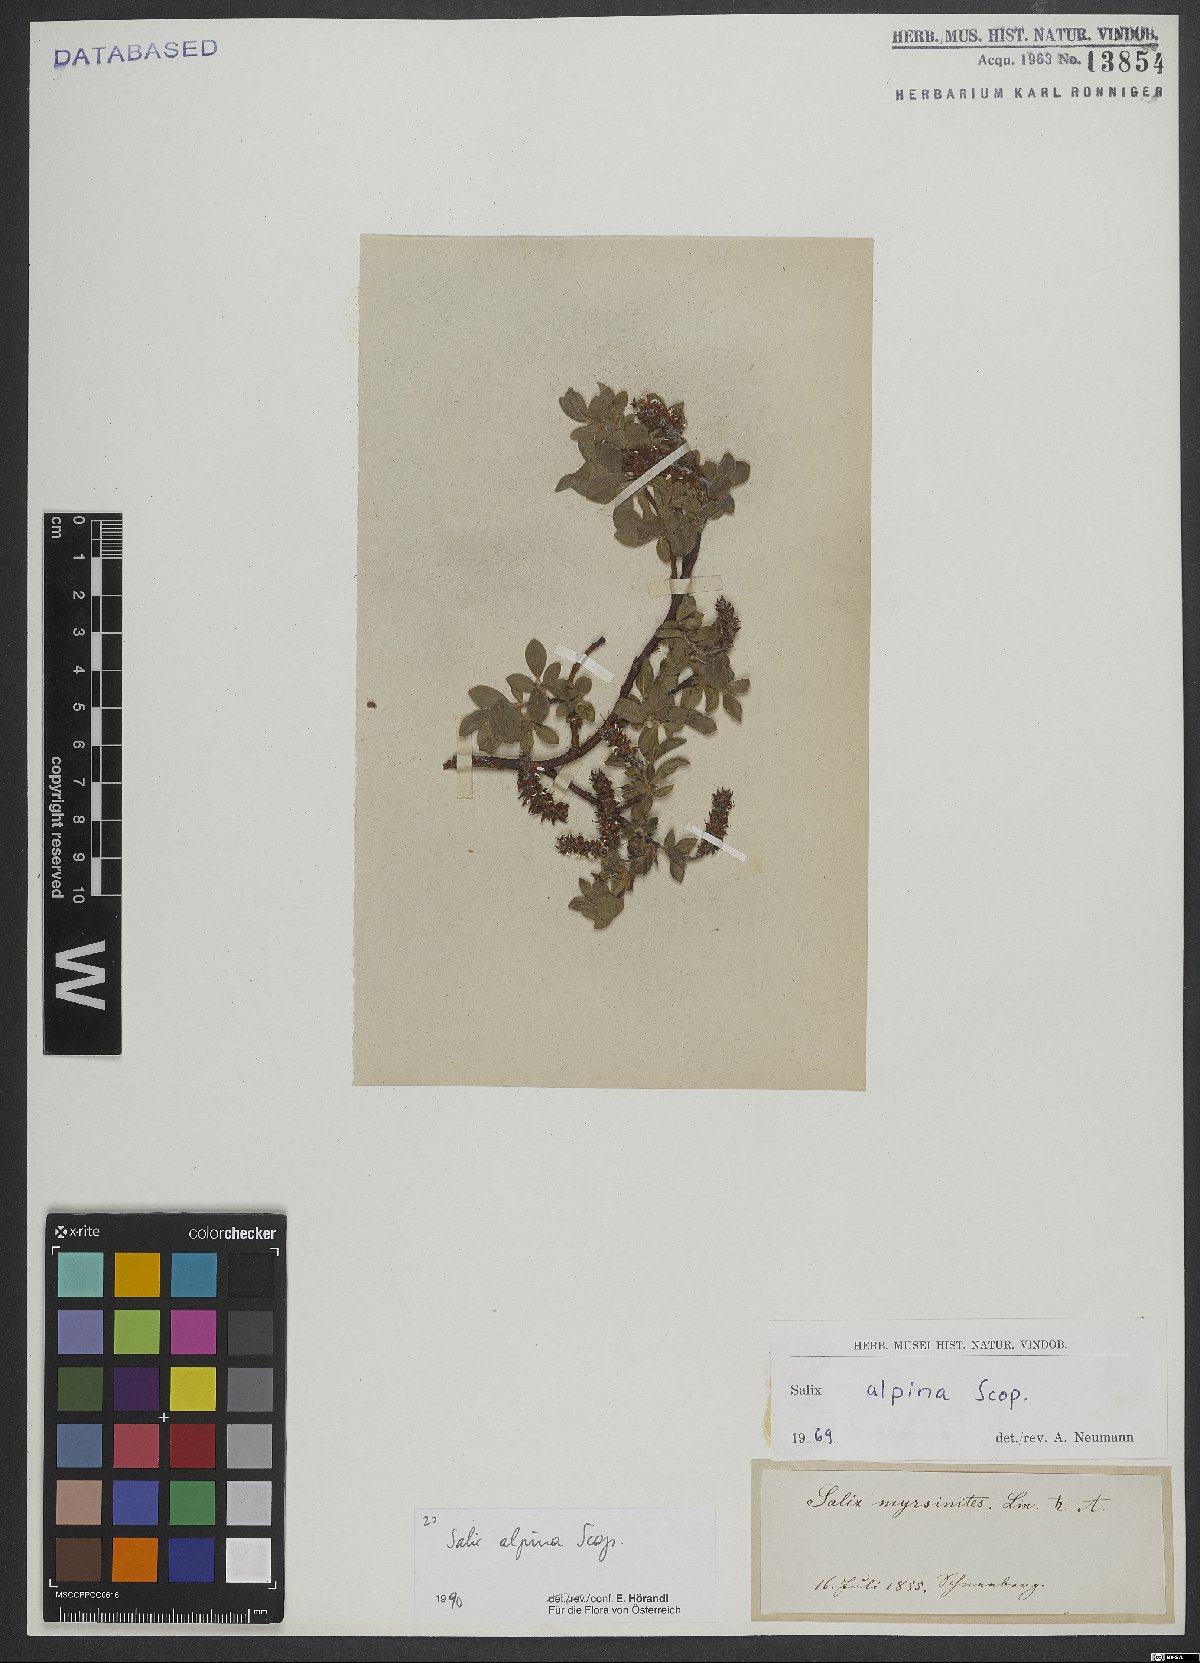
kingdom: Plantae
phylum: Tracheophyta
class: Magnoliopsida
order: Malpighiales
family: Salicaceae
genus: Salix
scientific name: Salix alpina
